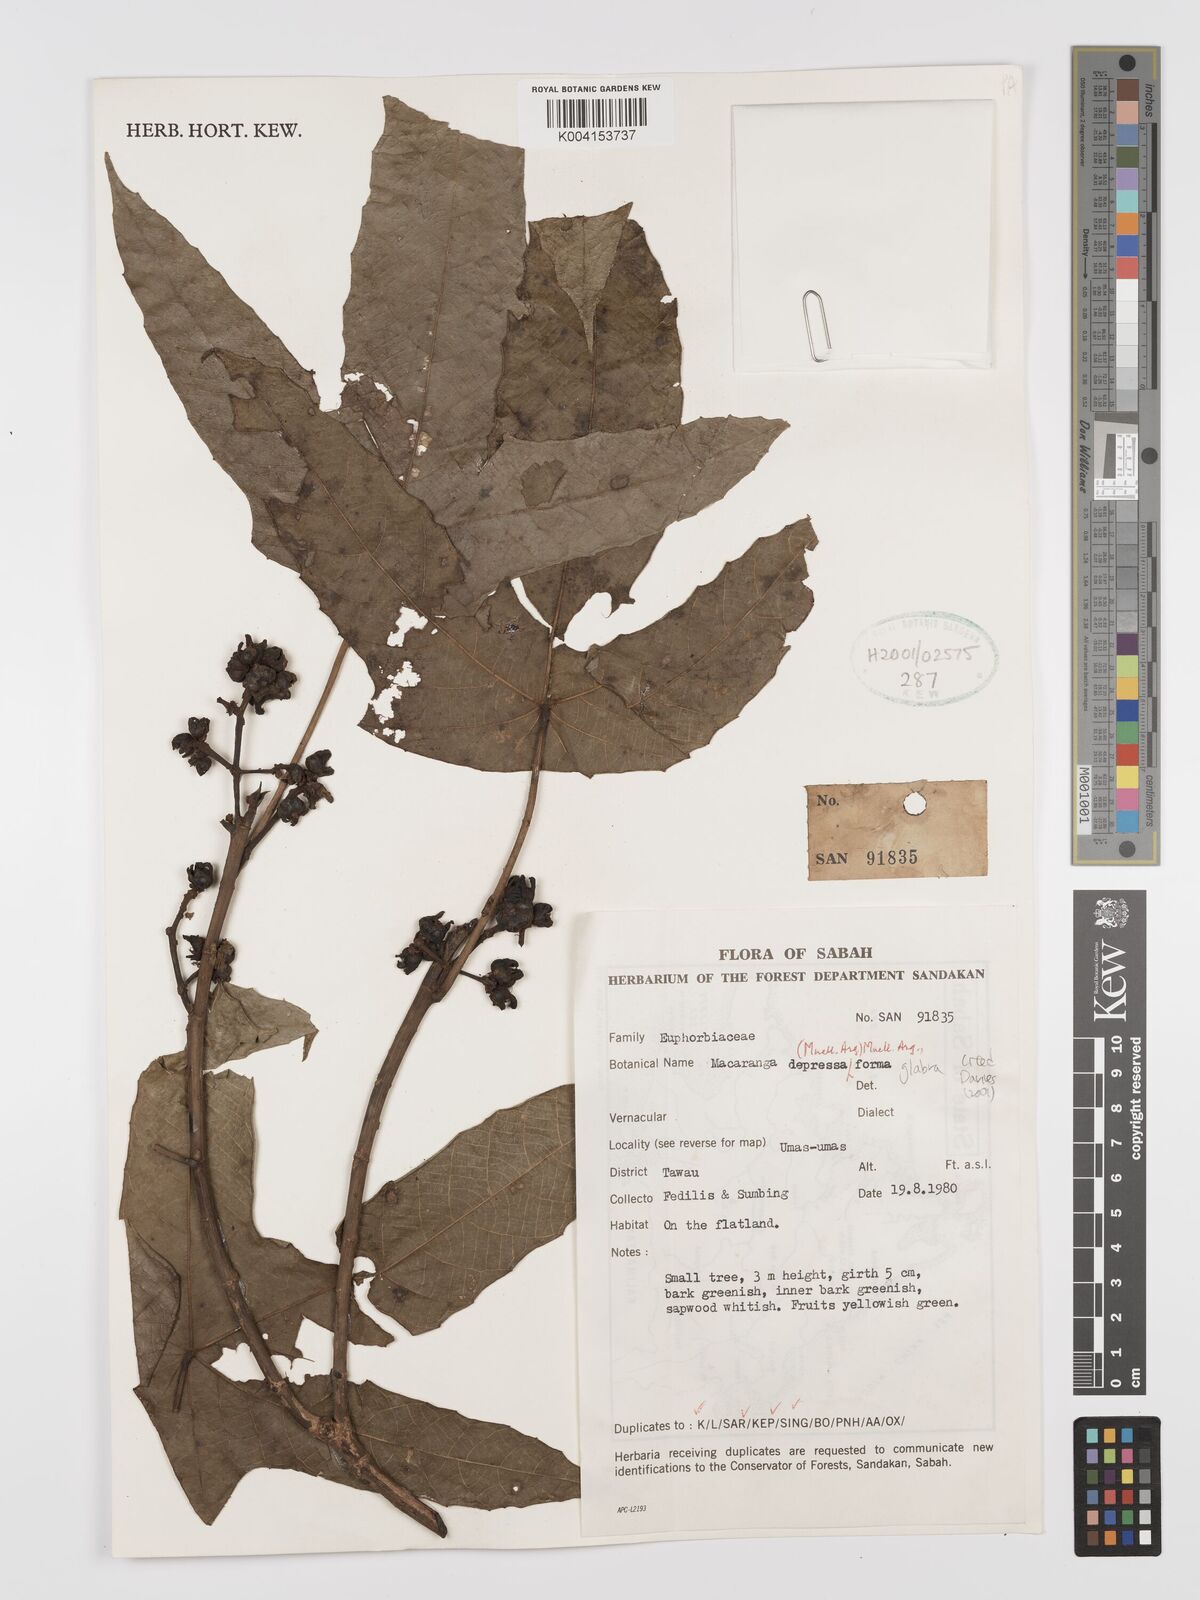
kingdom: Plantae
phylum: Tracheophyta
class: Magnoliopsida
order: Malpighiales
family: Euphorbiaceae
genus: Macaranga
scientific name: Macaranga depressa
